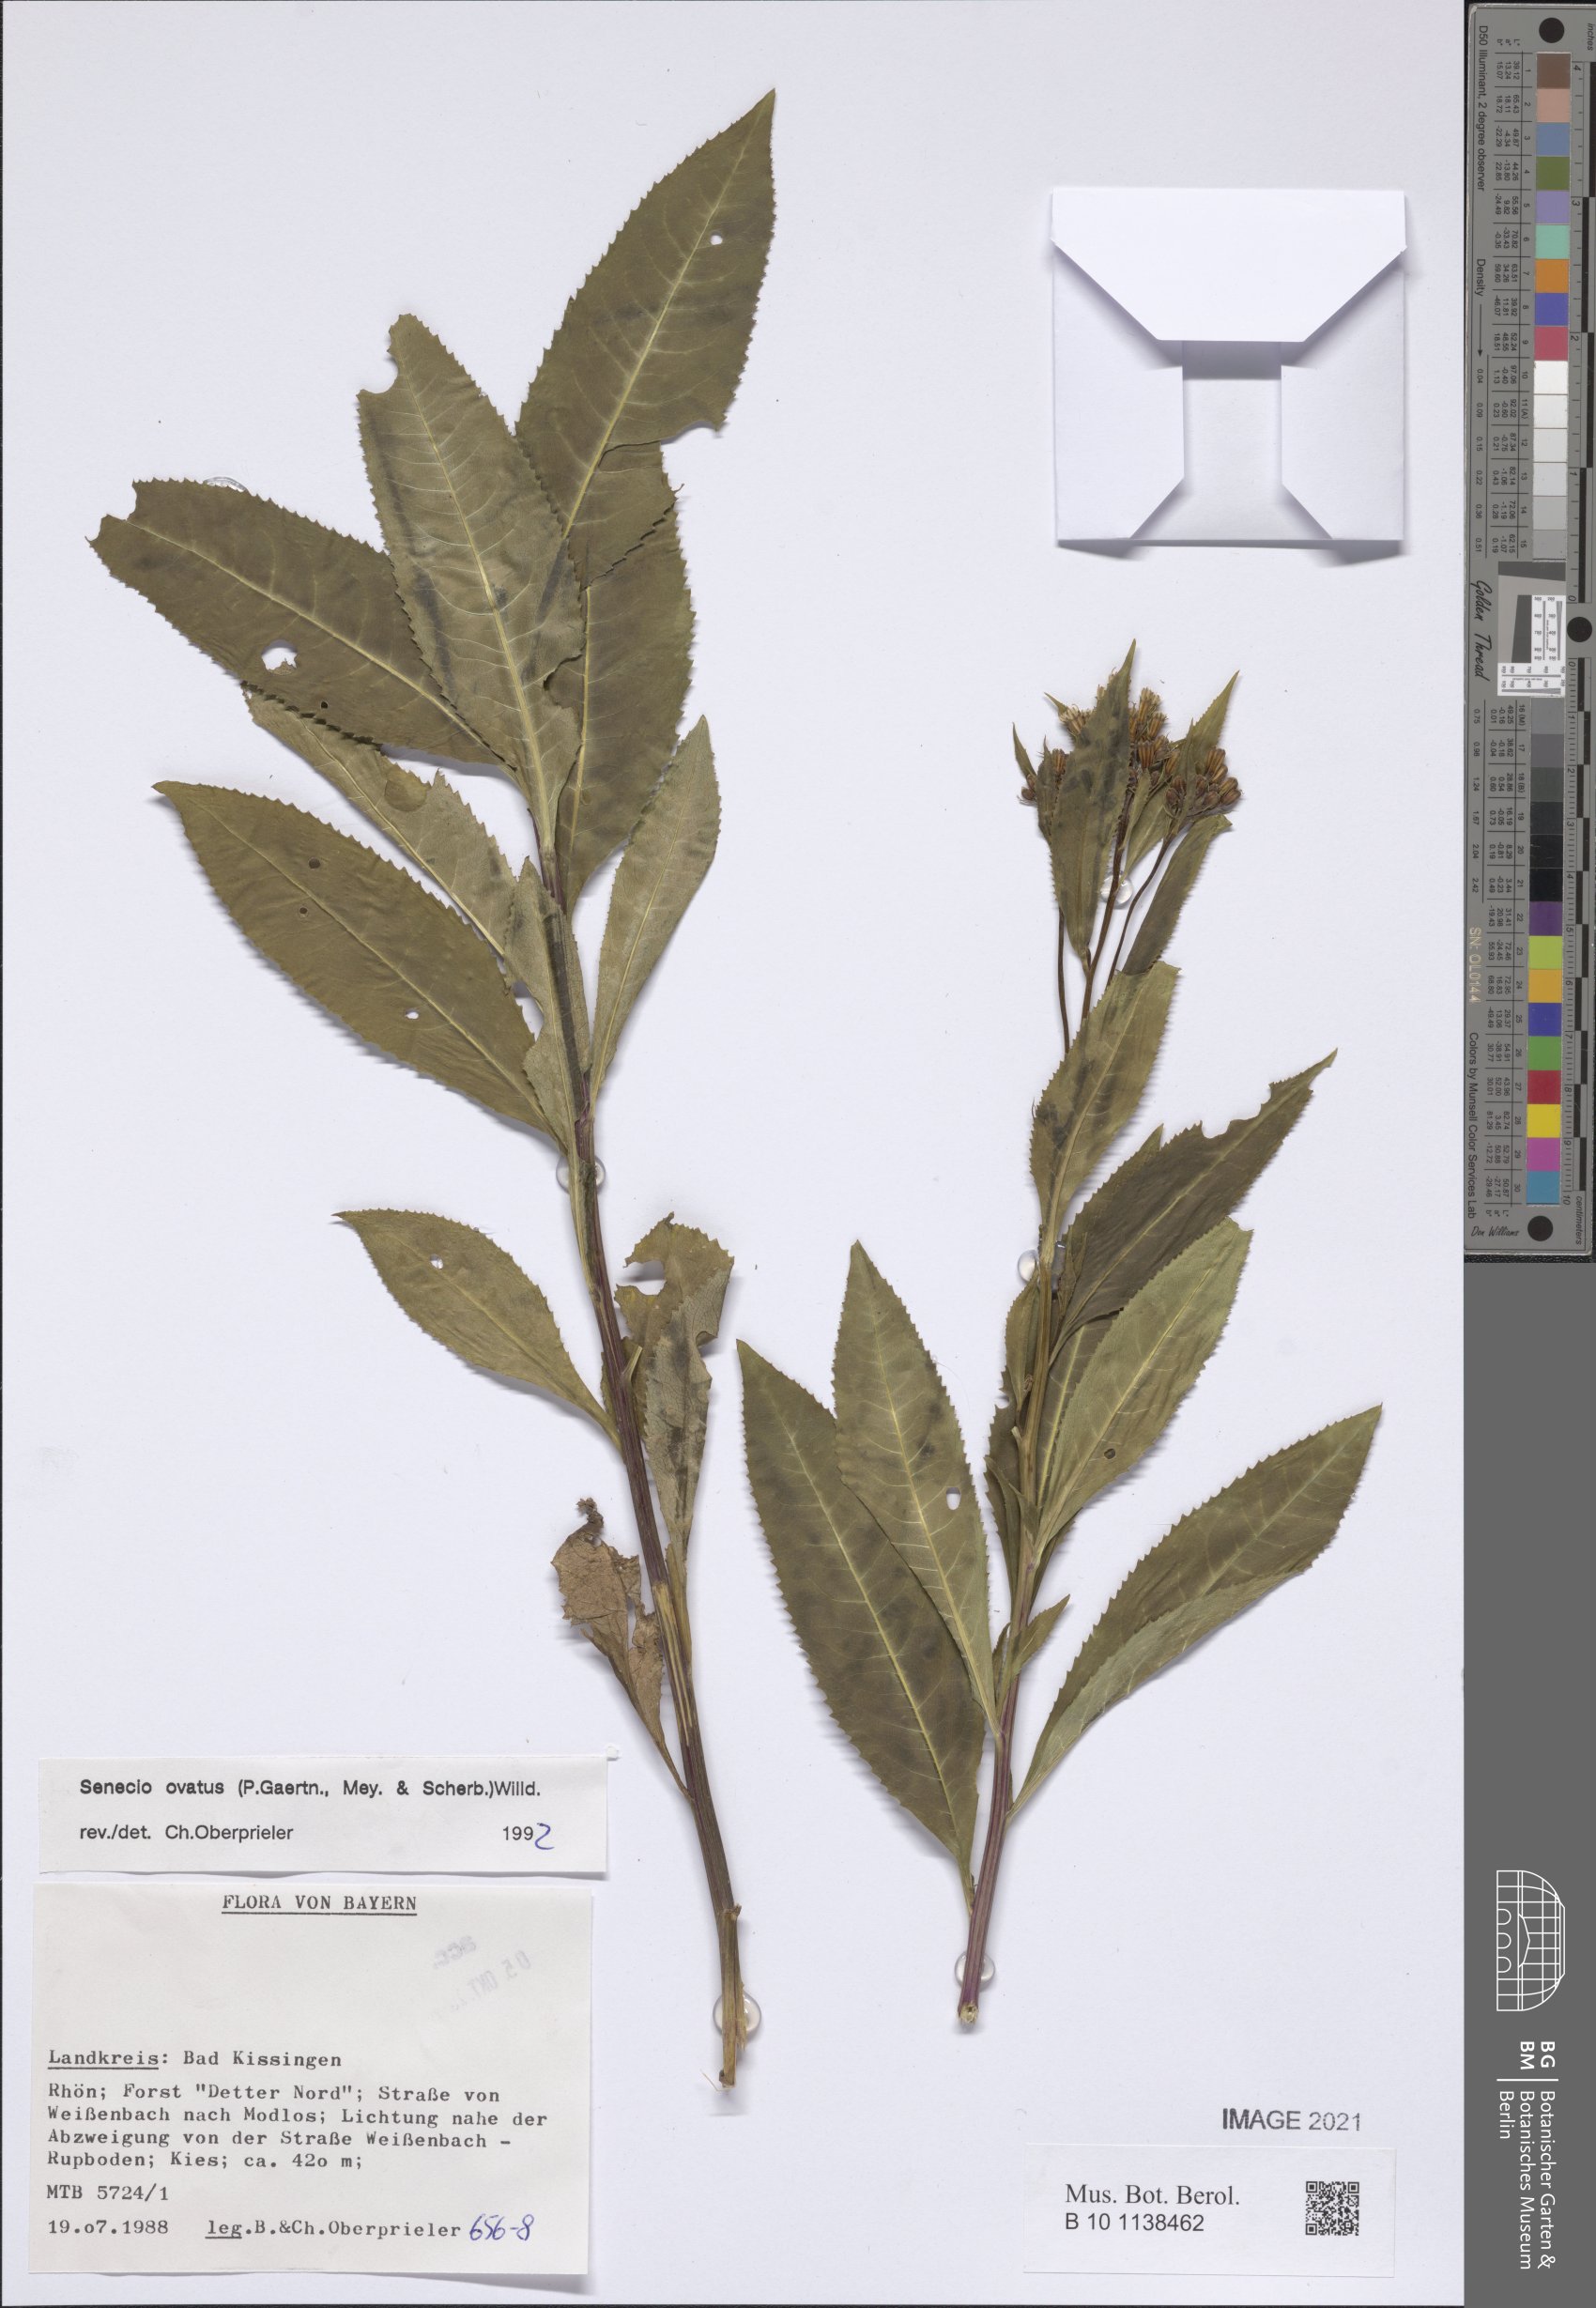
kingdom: Plantae
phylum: Tracheophyta
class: Magnoliopsida
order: Asterales
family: Asteraceae
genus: Senecio
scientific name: Senecio ovatus
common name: Wood ragwort
